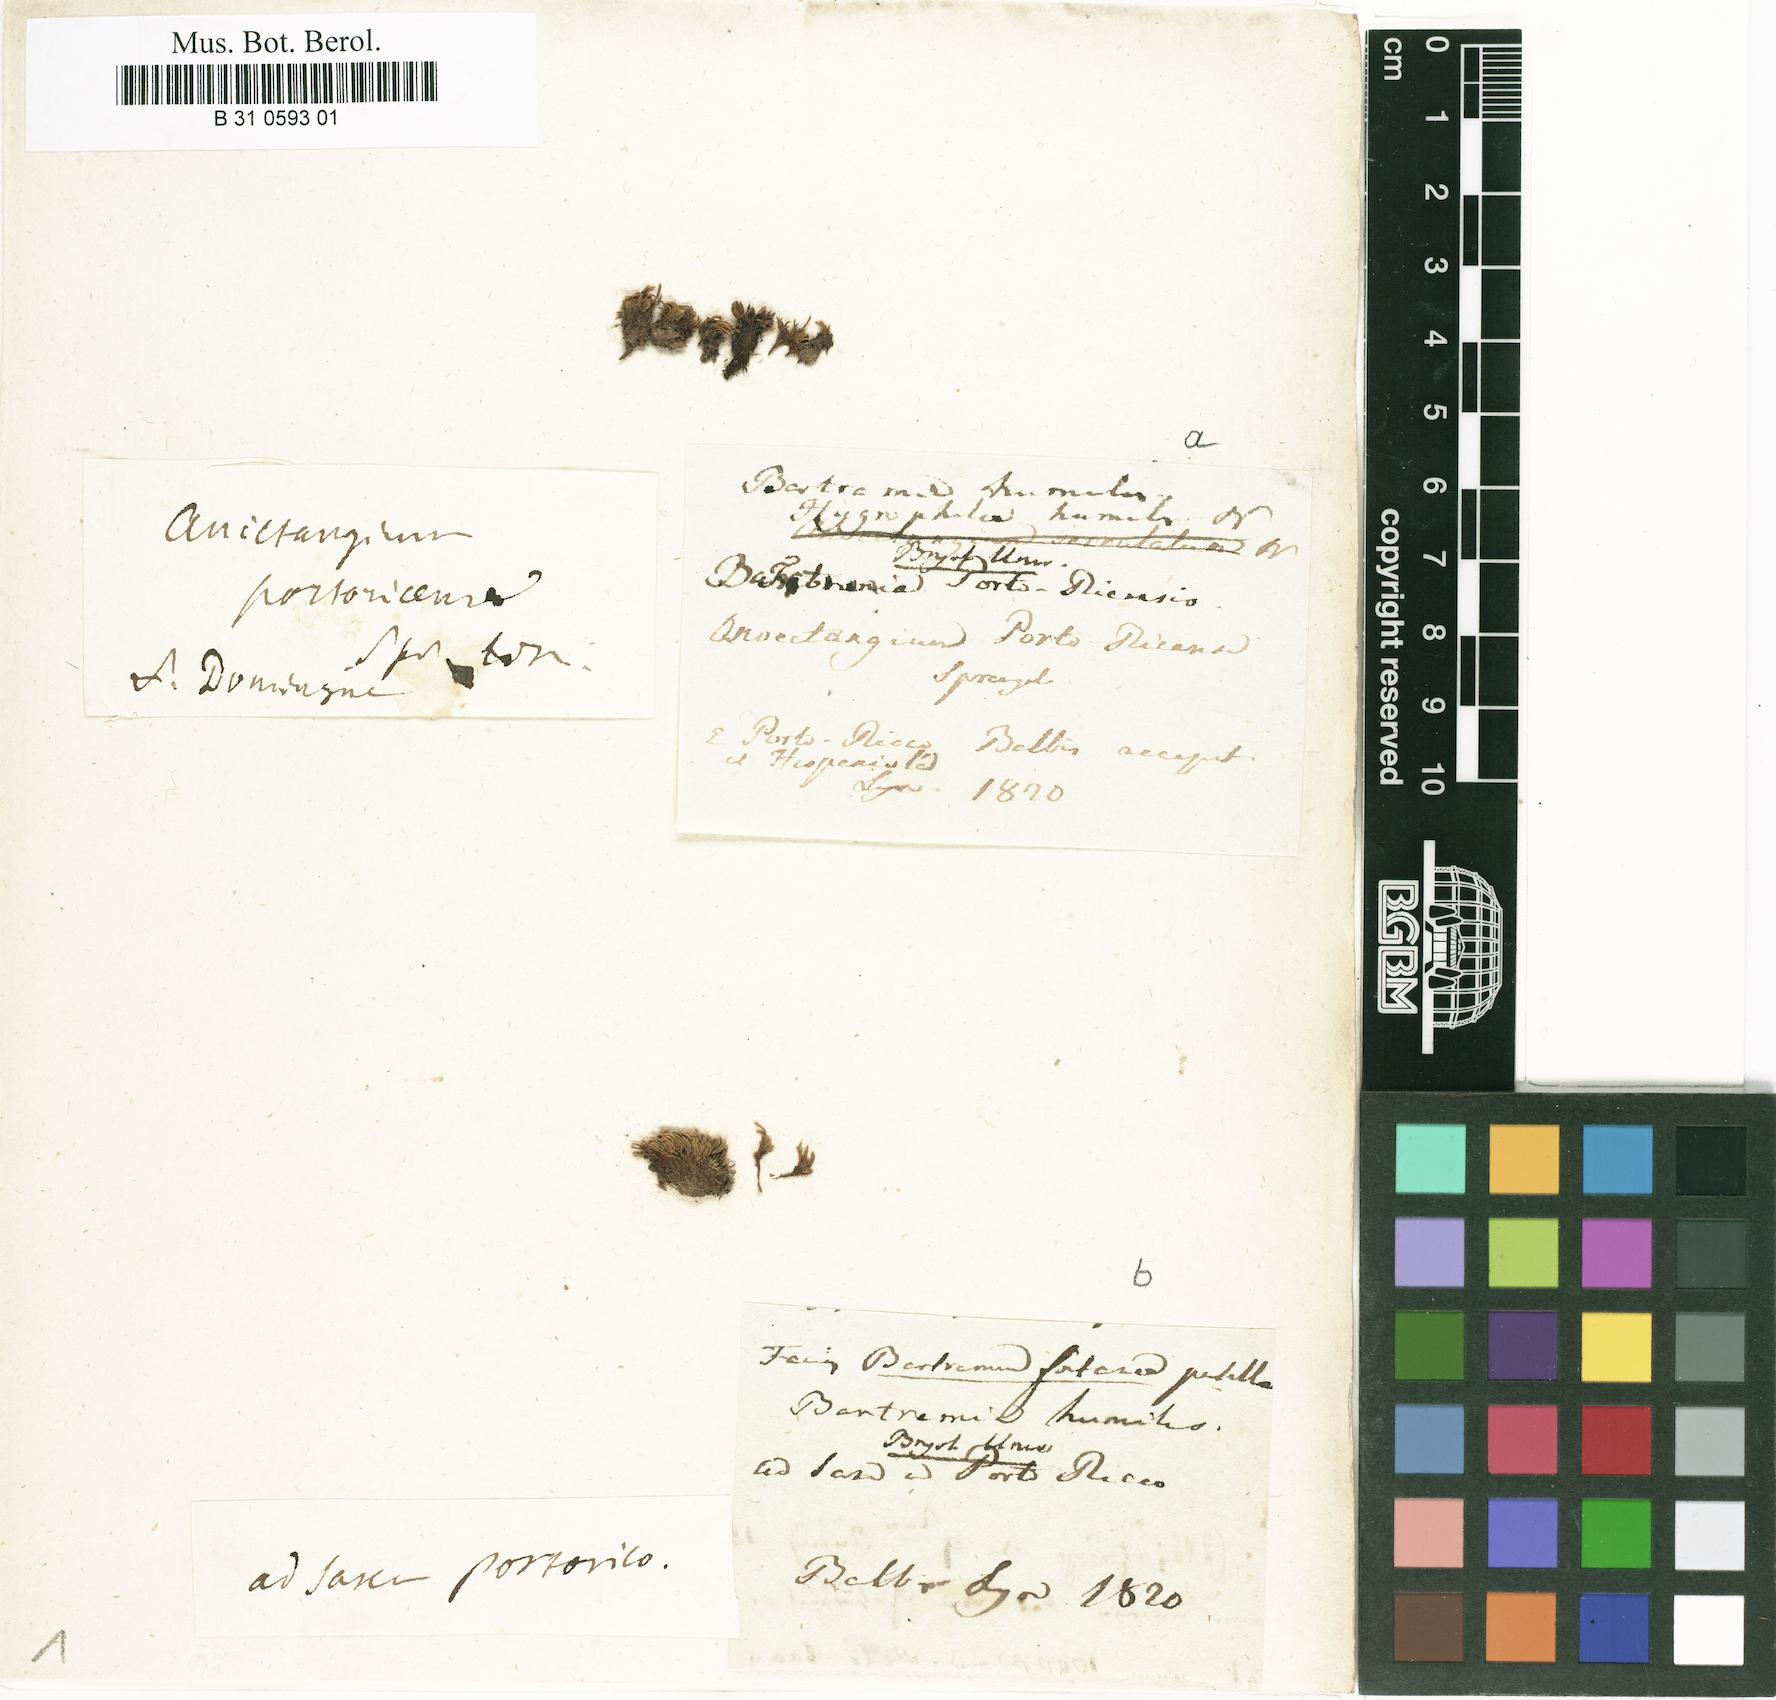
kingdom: Plantae
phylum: Bryophyta
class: Bryopsida
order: Bartramiales
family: Bartramiaceae
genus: Philonotis
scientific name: Philonotis humilis
